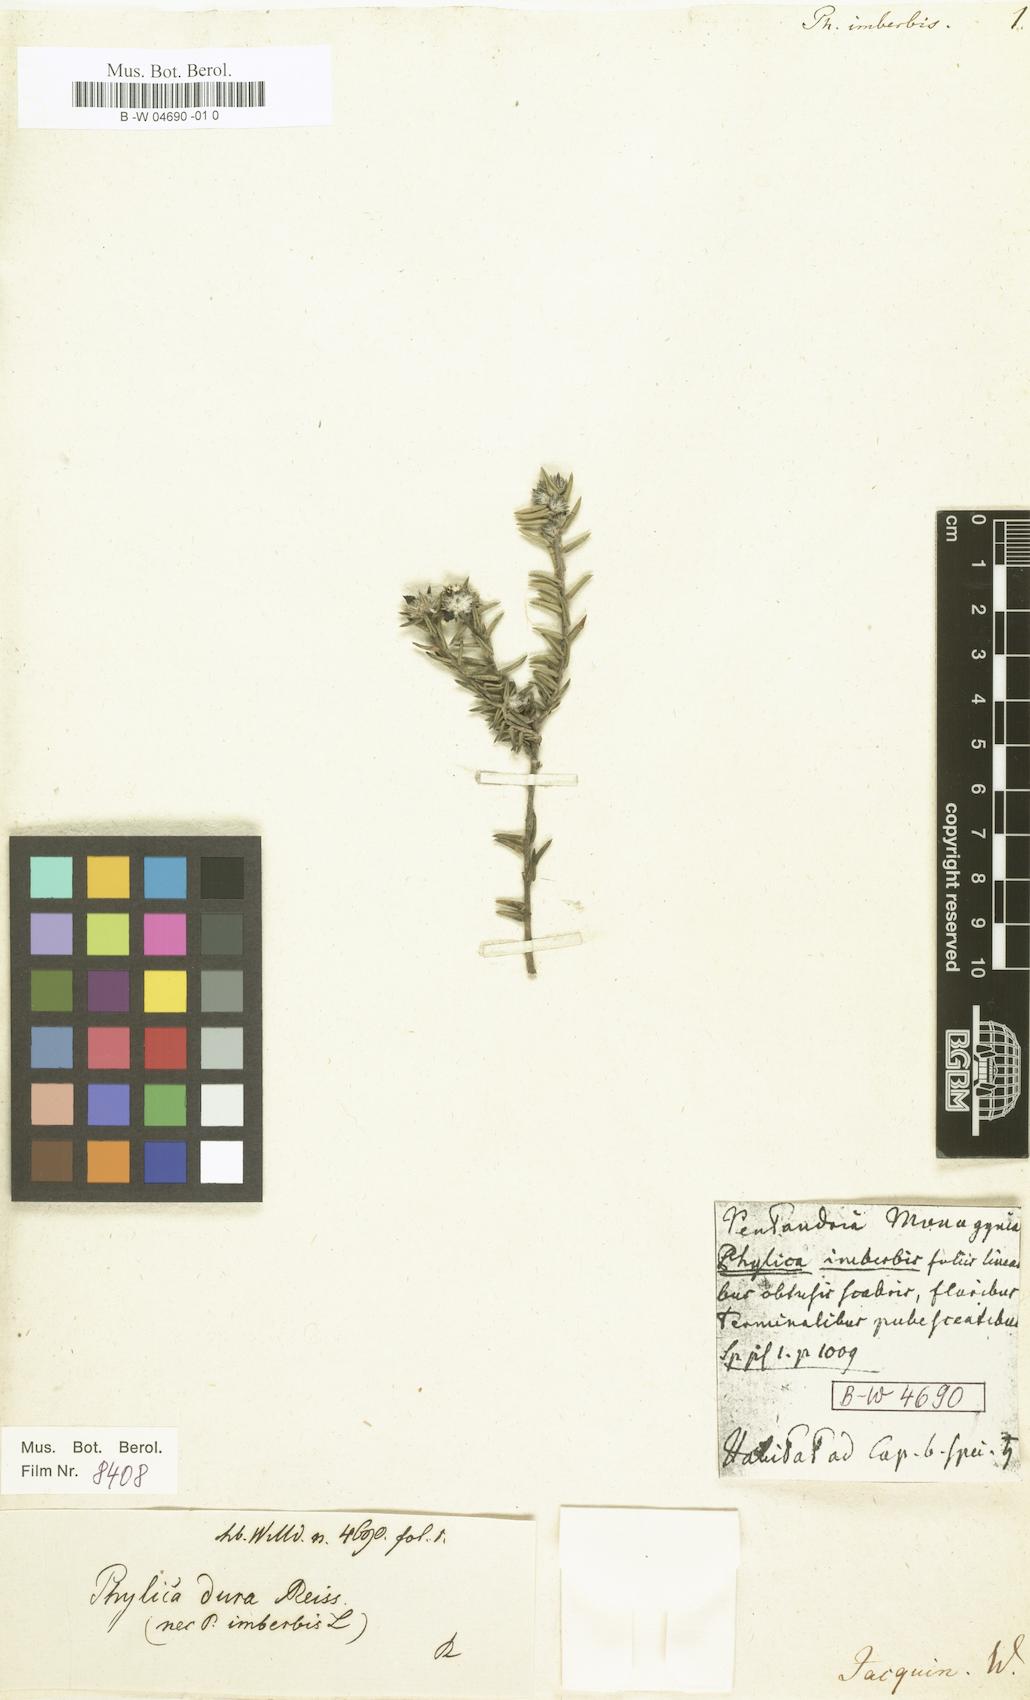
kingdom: Plantae
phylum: Tracheophyta
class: Magnoliopsida
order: Rosales
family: Rhamnaceae
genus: Phylica
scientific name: Phylica imberbis
